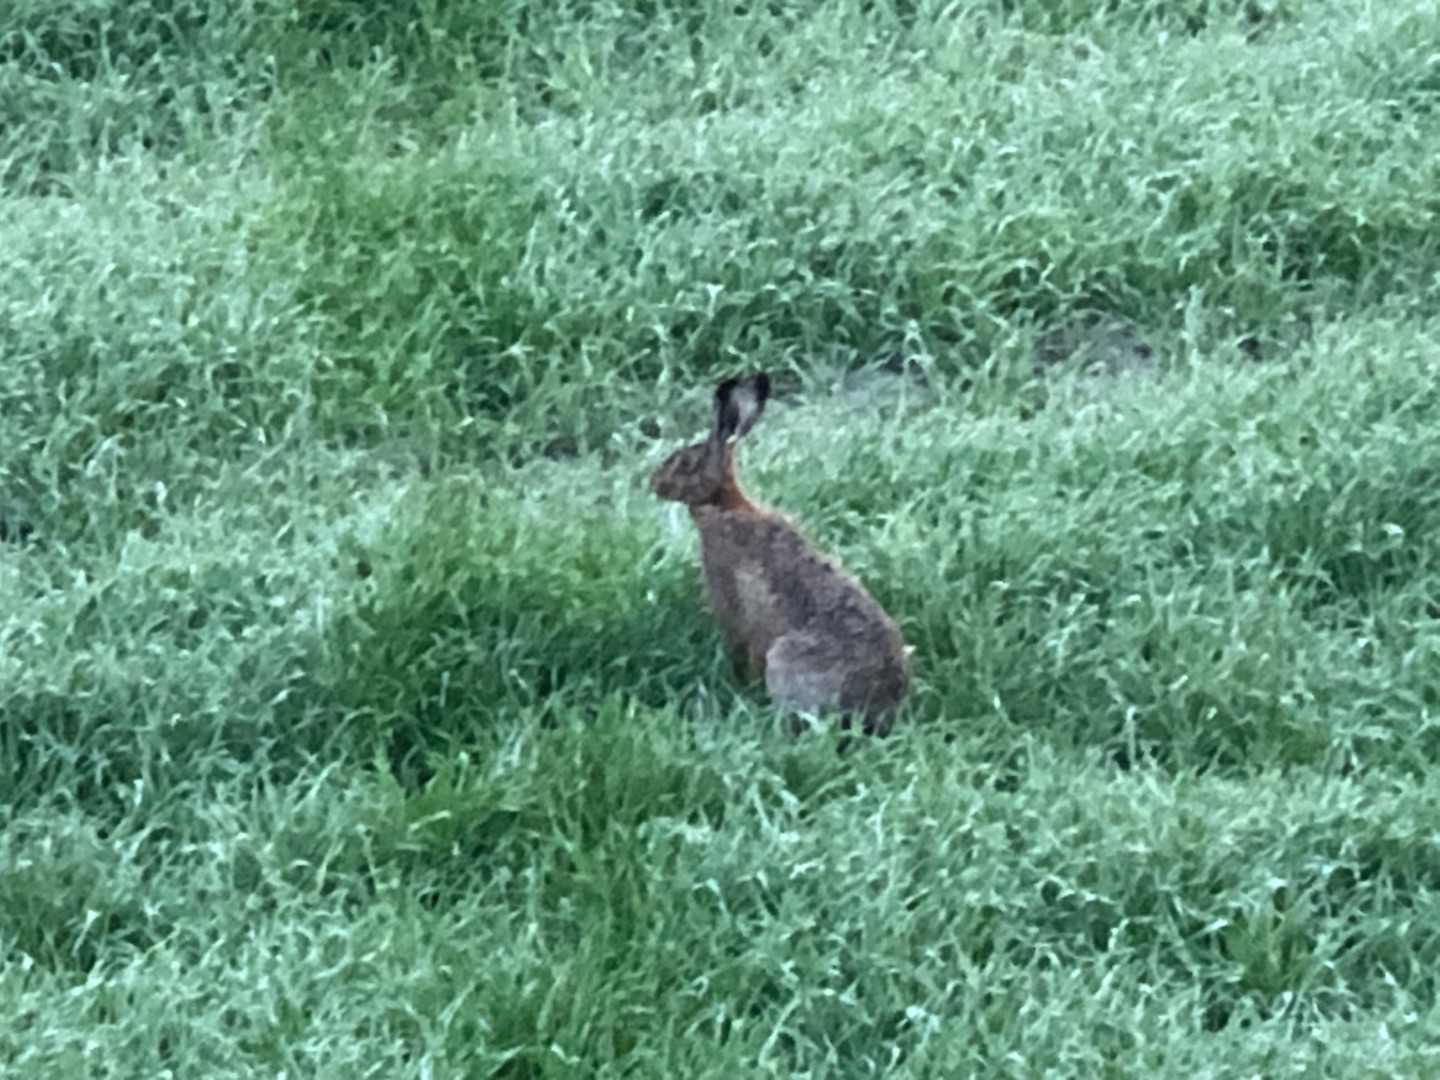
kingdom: Animalia
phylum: Chordata
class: Mammalia
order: Lagomorpha
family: Leporidae
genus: Lepus
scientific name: Lepus europaeus
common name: Hare
